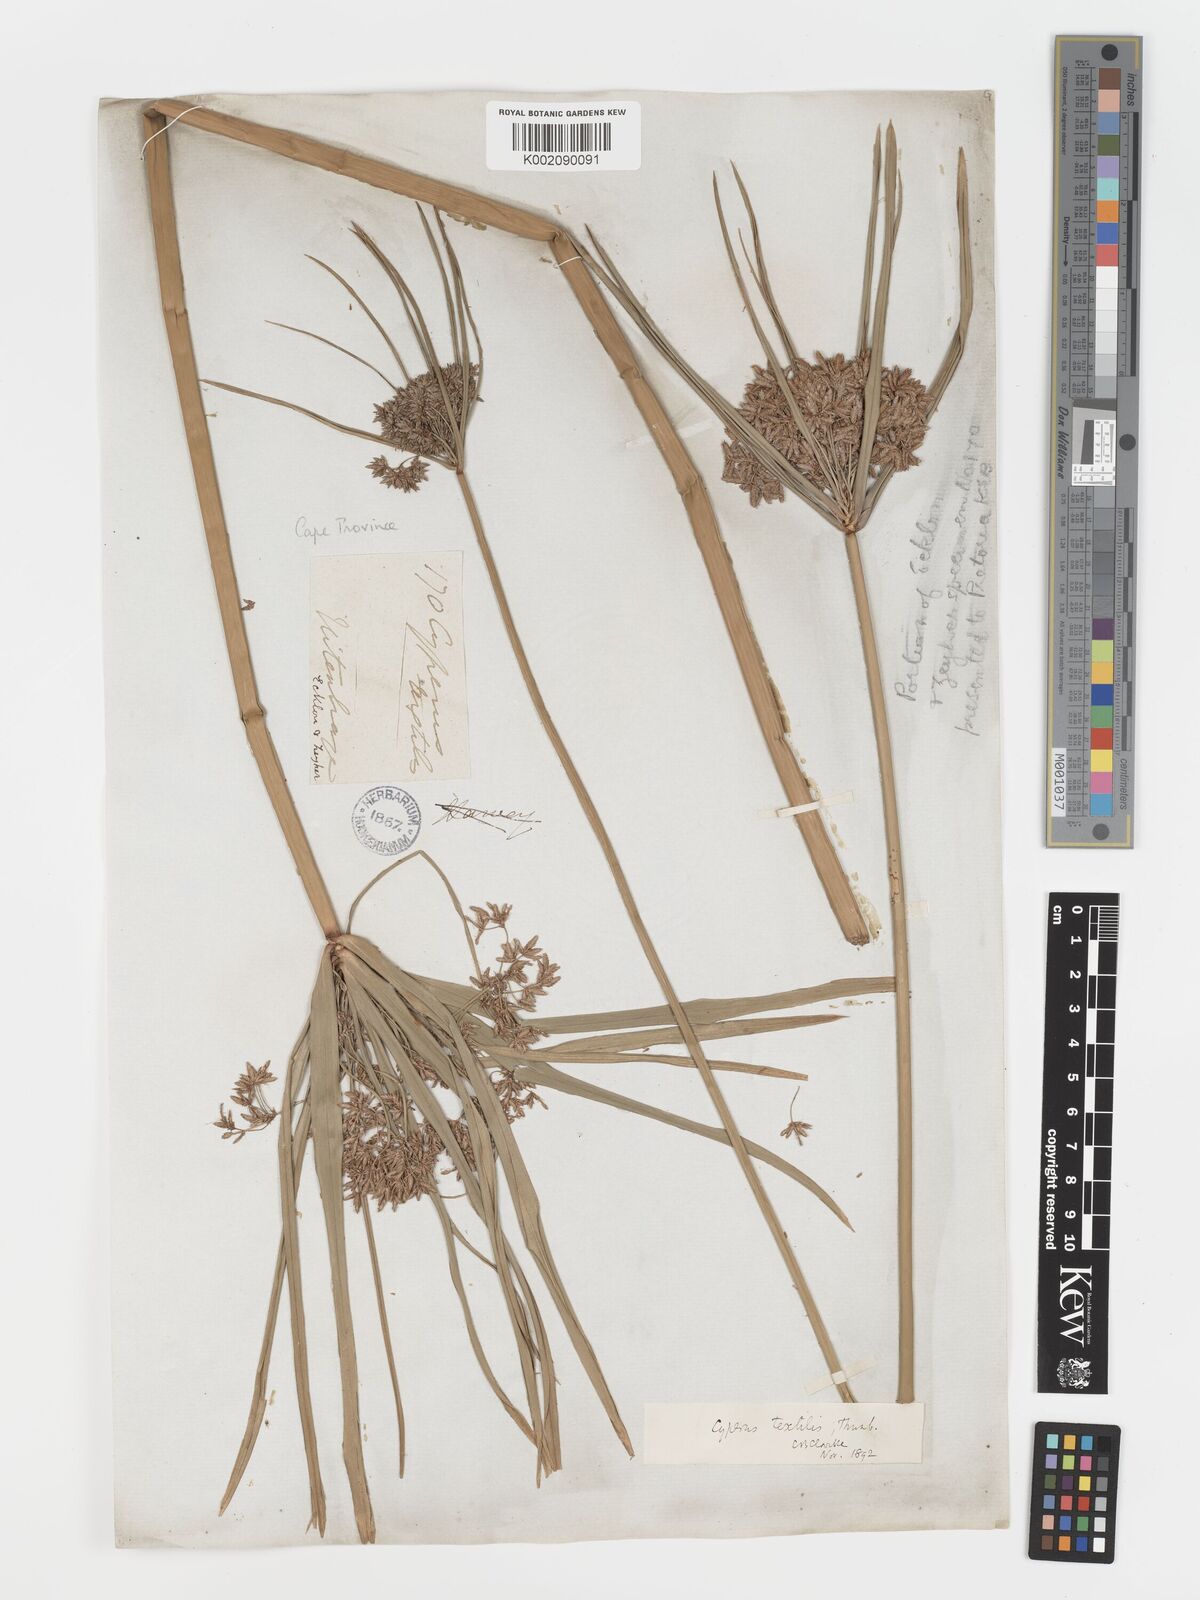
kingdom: Plantae
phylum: Tracheophyta
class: Liliopsida
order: Poales
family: Cyperaceae
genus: Cyperus
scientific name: Cyperus alternifolius
